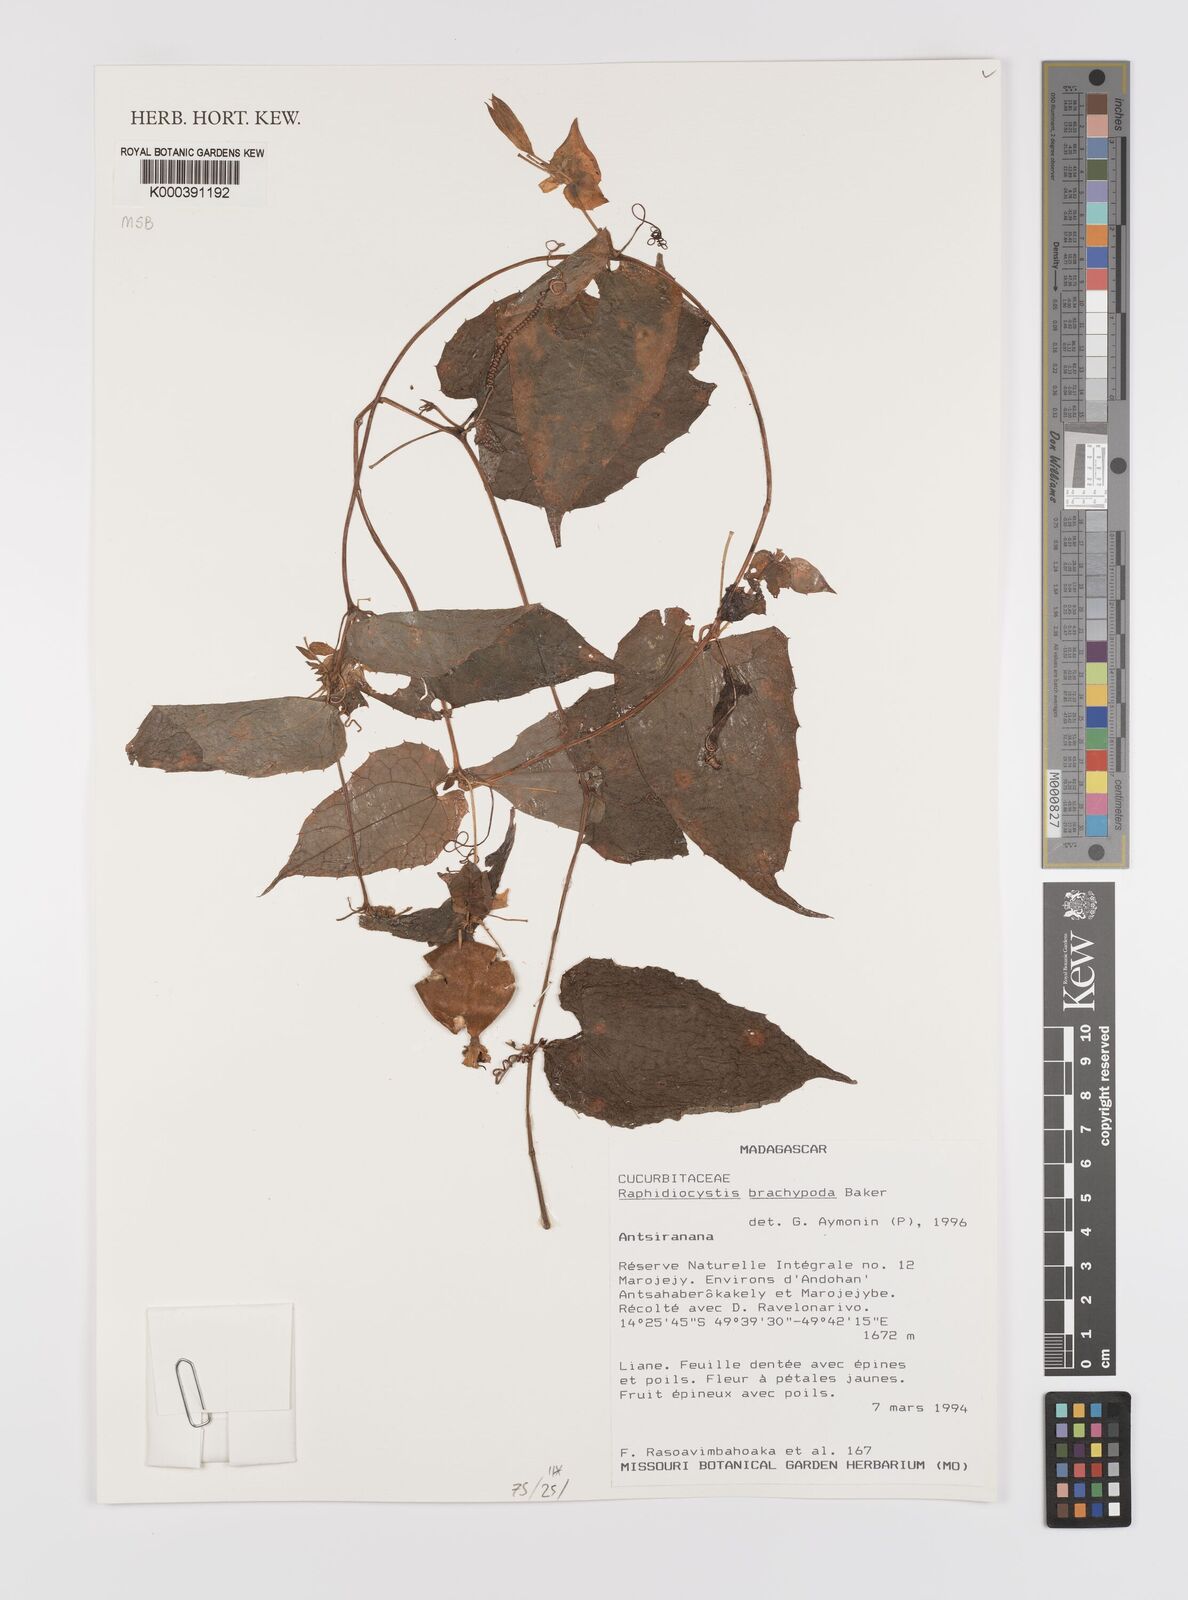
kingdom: Plantae
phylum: Tracheophyta
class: Magnoliopsida
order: Cucurbitales
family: Cucurbitaceae
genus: Raphidiocystis
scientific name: Raphidiocystis brachypoda
